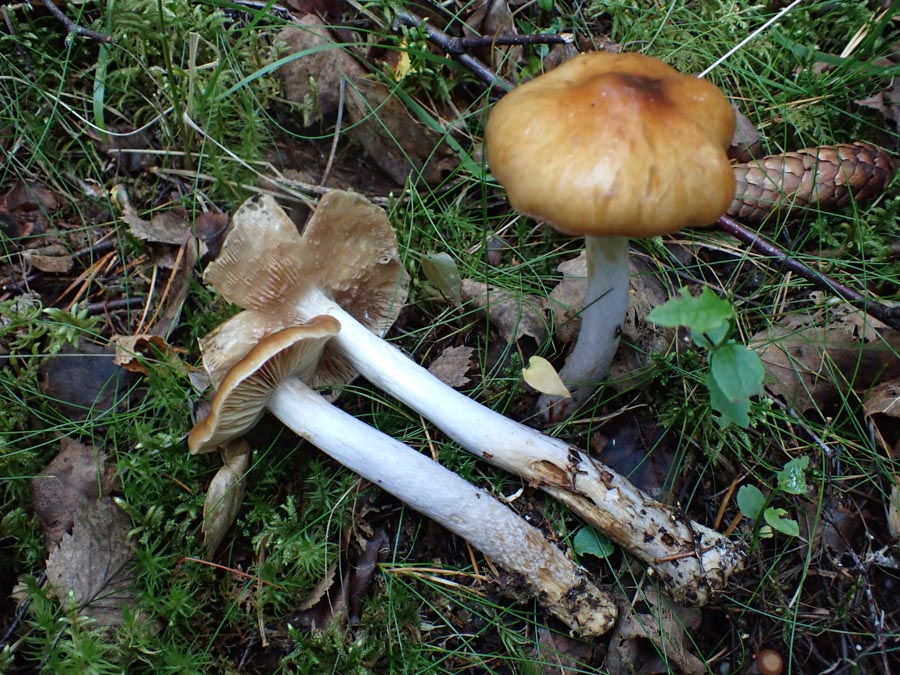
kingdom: Fungi
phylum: Basidiomycota
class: Agaricomycetes
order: Agaricales
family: Cortinariaceae
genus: Cortinarius
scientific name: Cortinarius collinitus
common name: spættet slørhat
